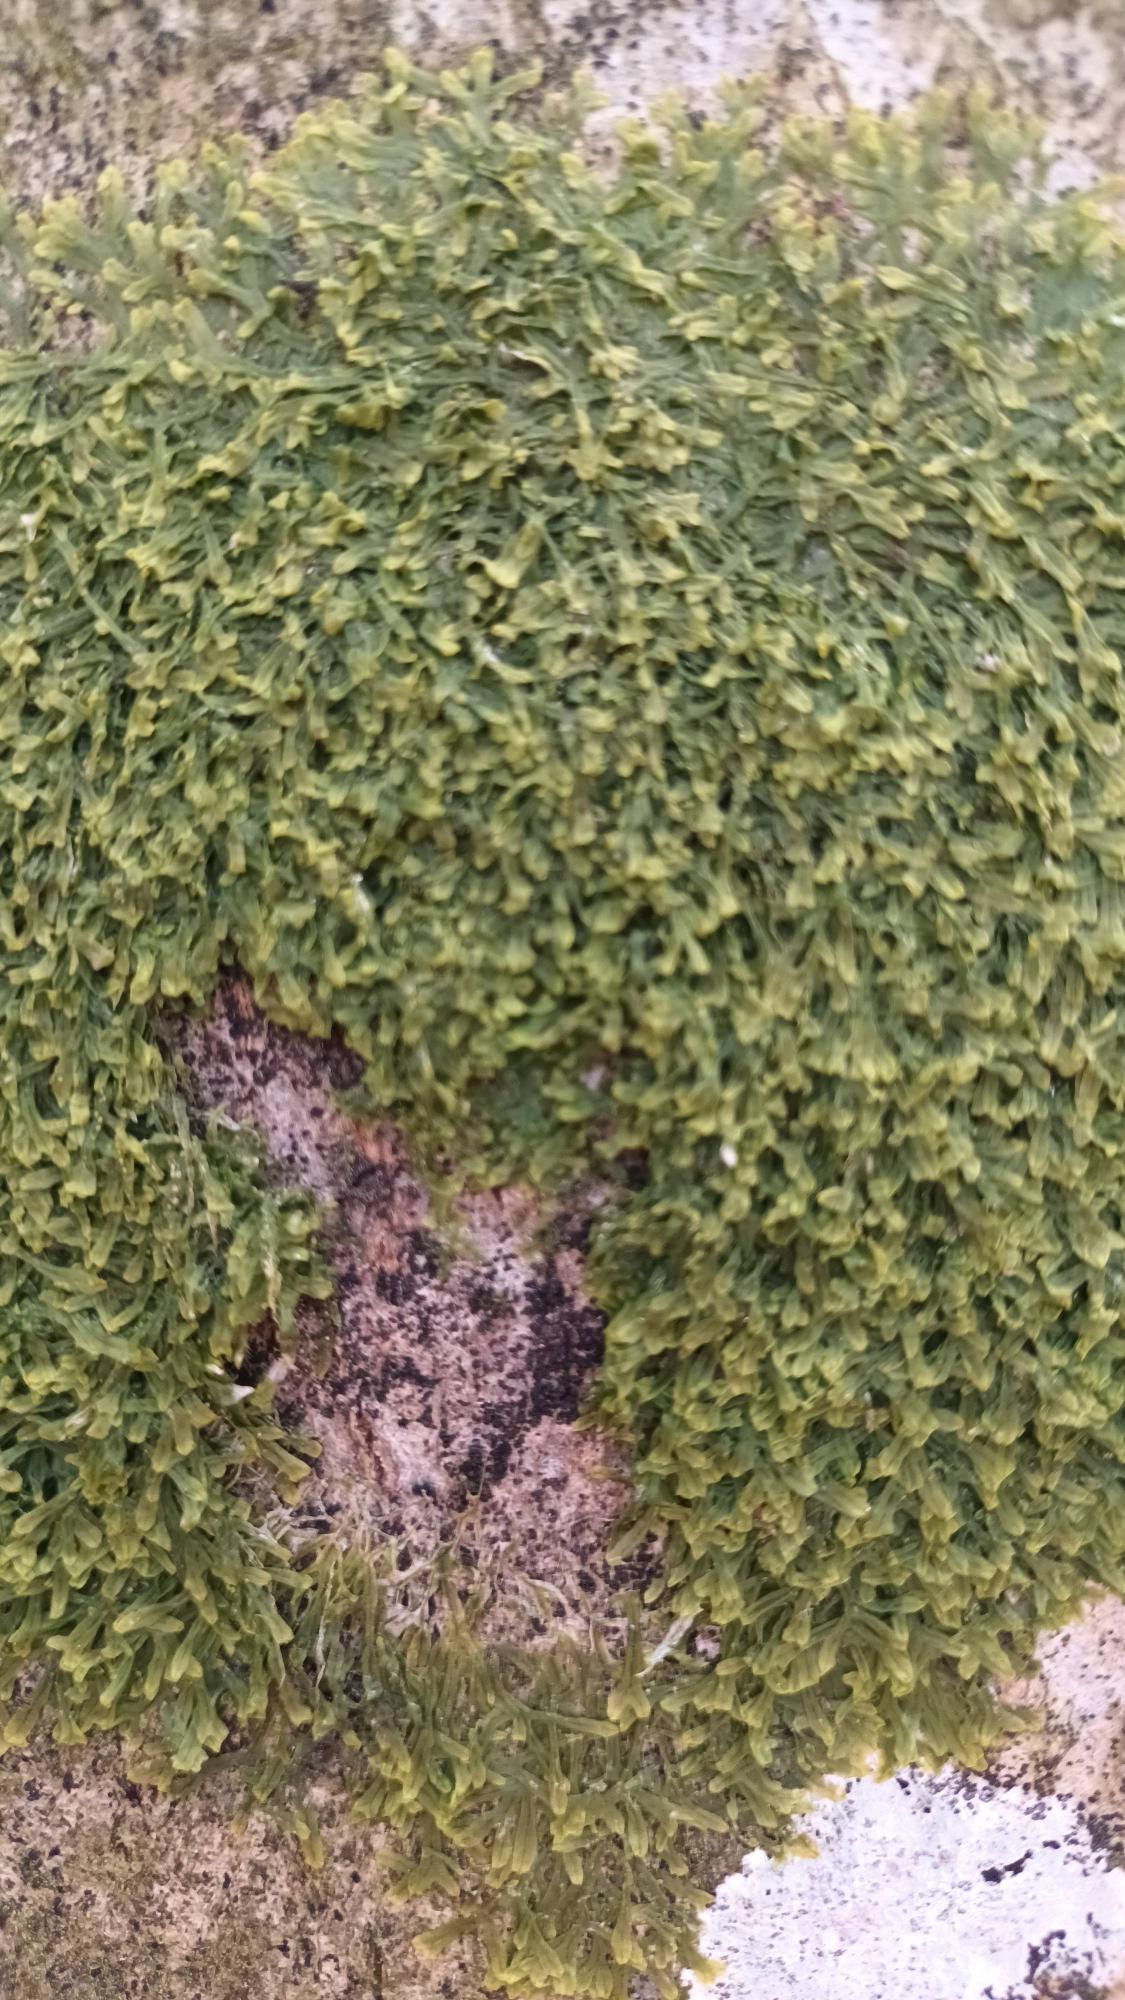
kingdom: Plantae
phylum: Marchantiophyta
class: Jungermanniopsida
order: Metzgeriales
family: Metzgeriaceae
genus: Metzgeria
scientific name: Metzgeria furcata
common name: Almindelig gaffelløv
